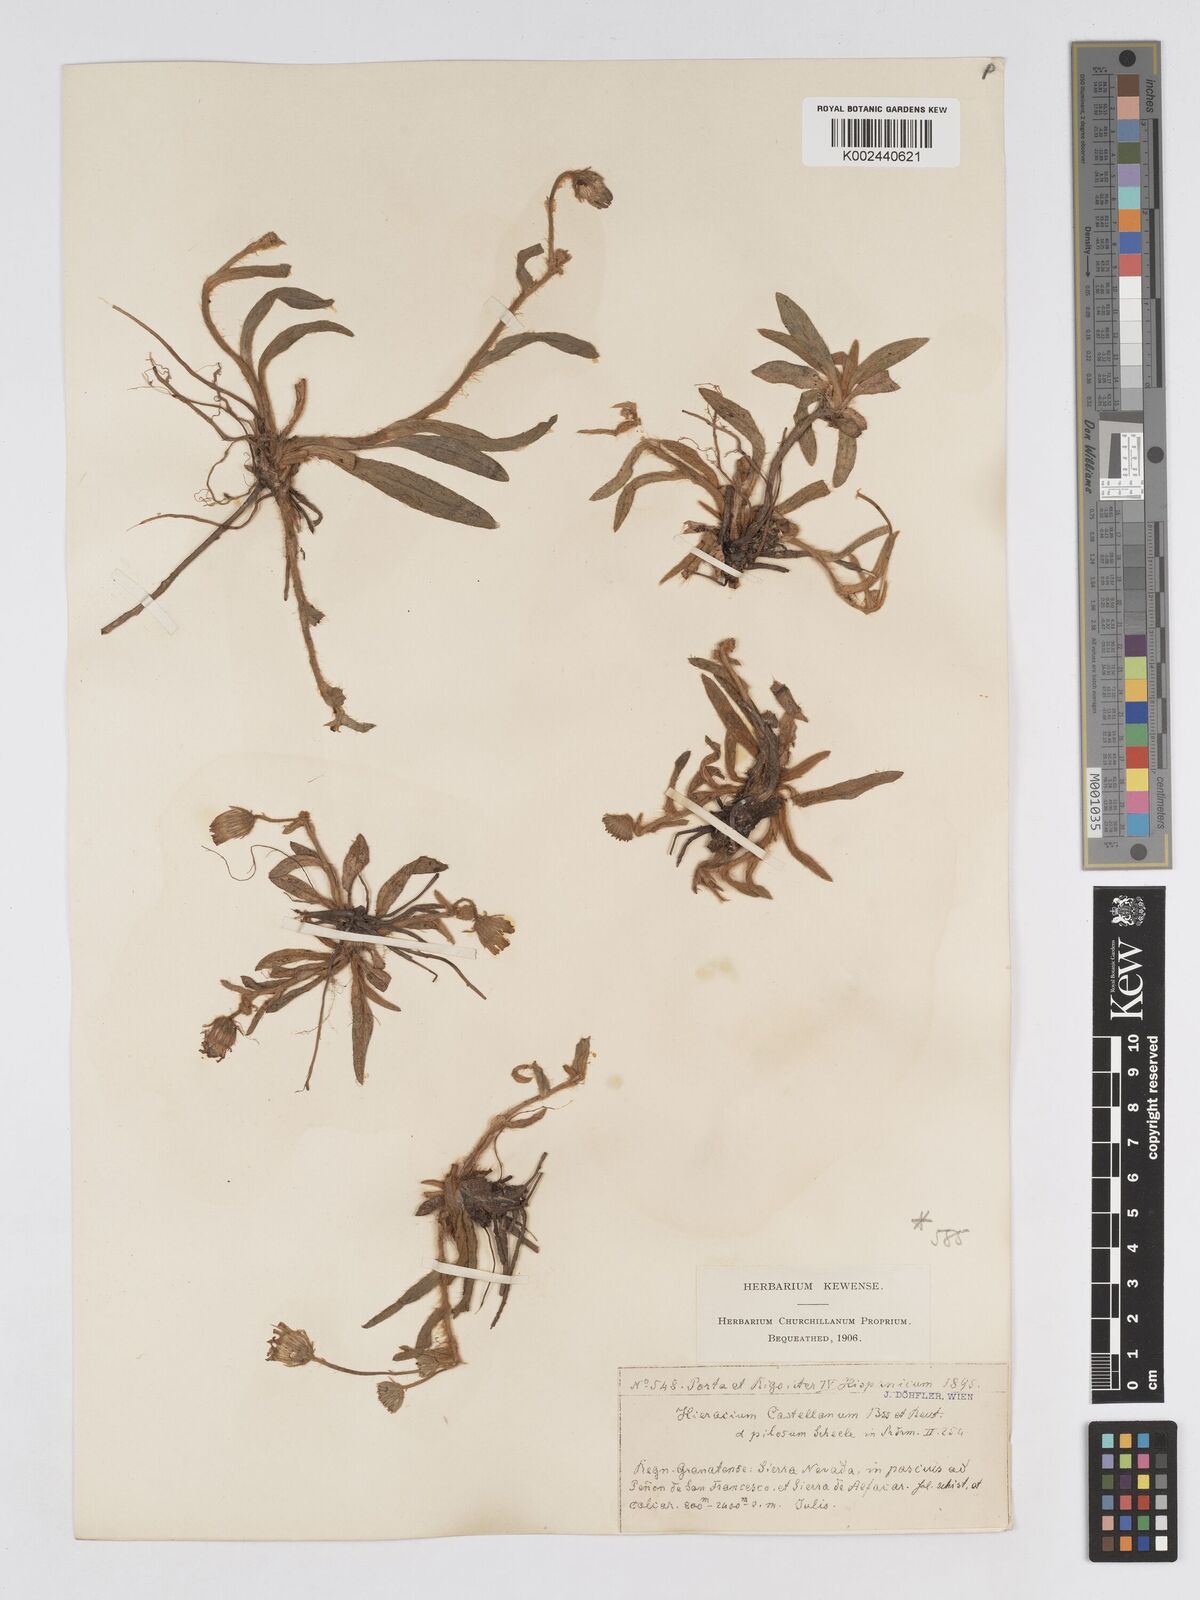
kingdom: Plantae
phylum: Tracheophyta
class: Magnoliopsida
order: Asterales
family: Asteraceae
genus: Pilosella
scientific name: Pilosella castellana
